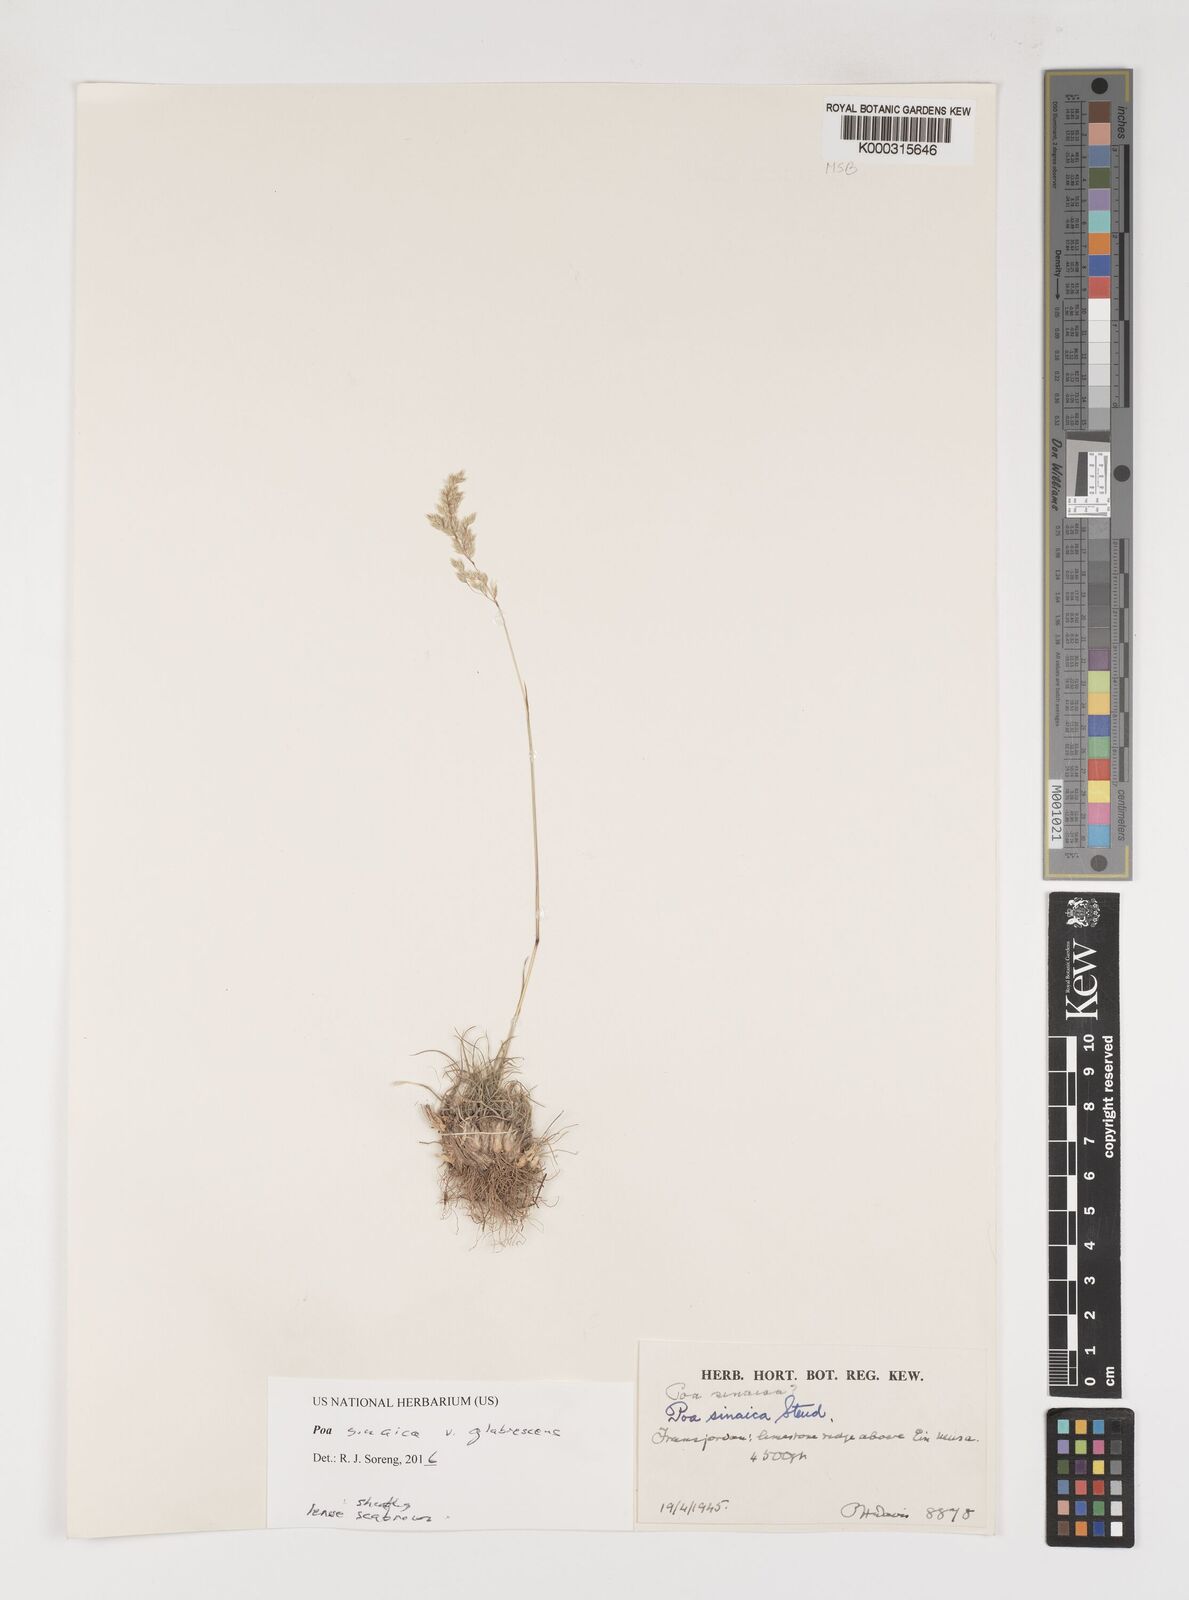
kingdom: Plantae
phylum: Tracheophyta
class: Liliopsida
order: Poales
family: Poaceae
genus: Poa
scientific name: Poa sinaica
